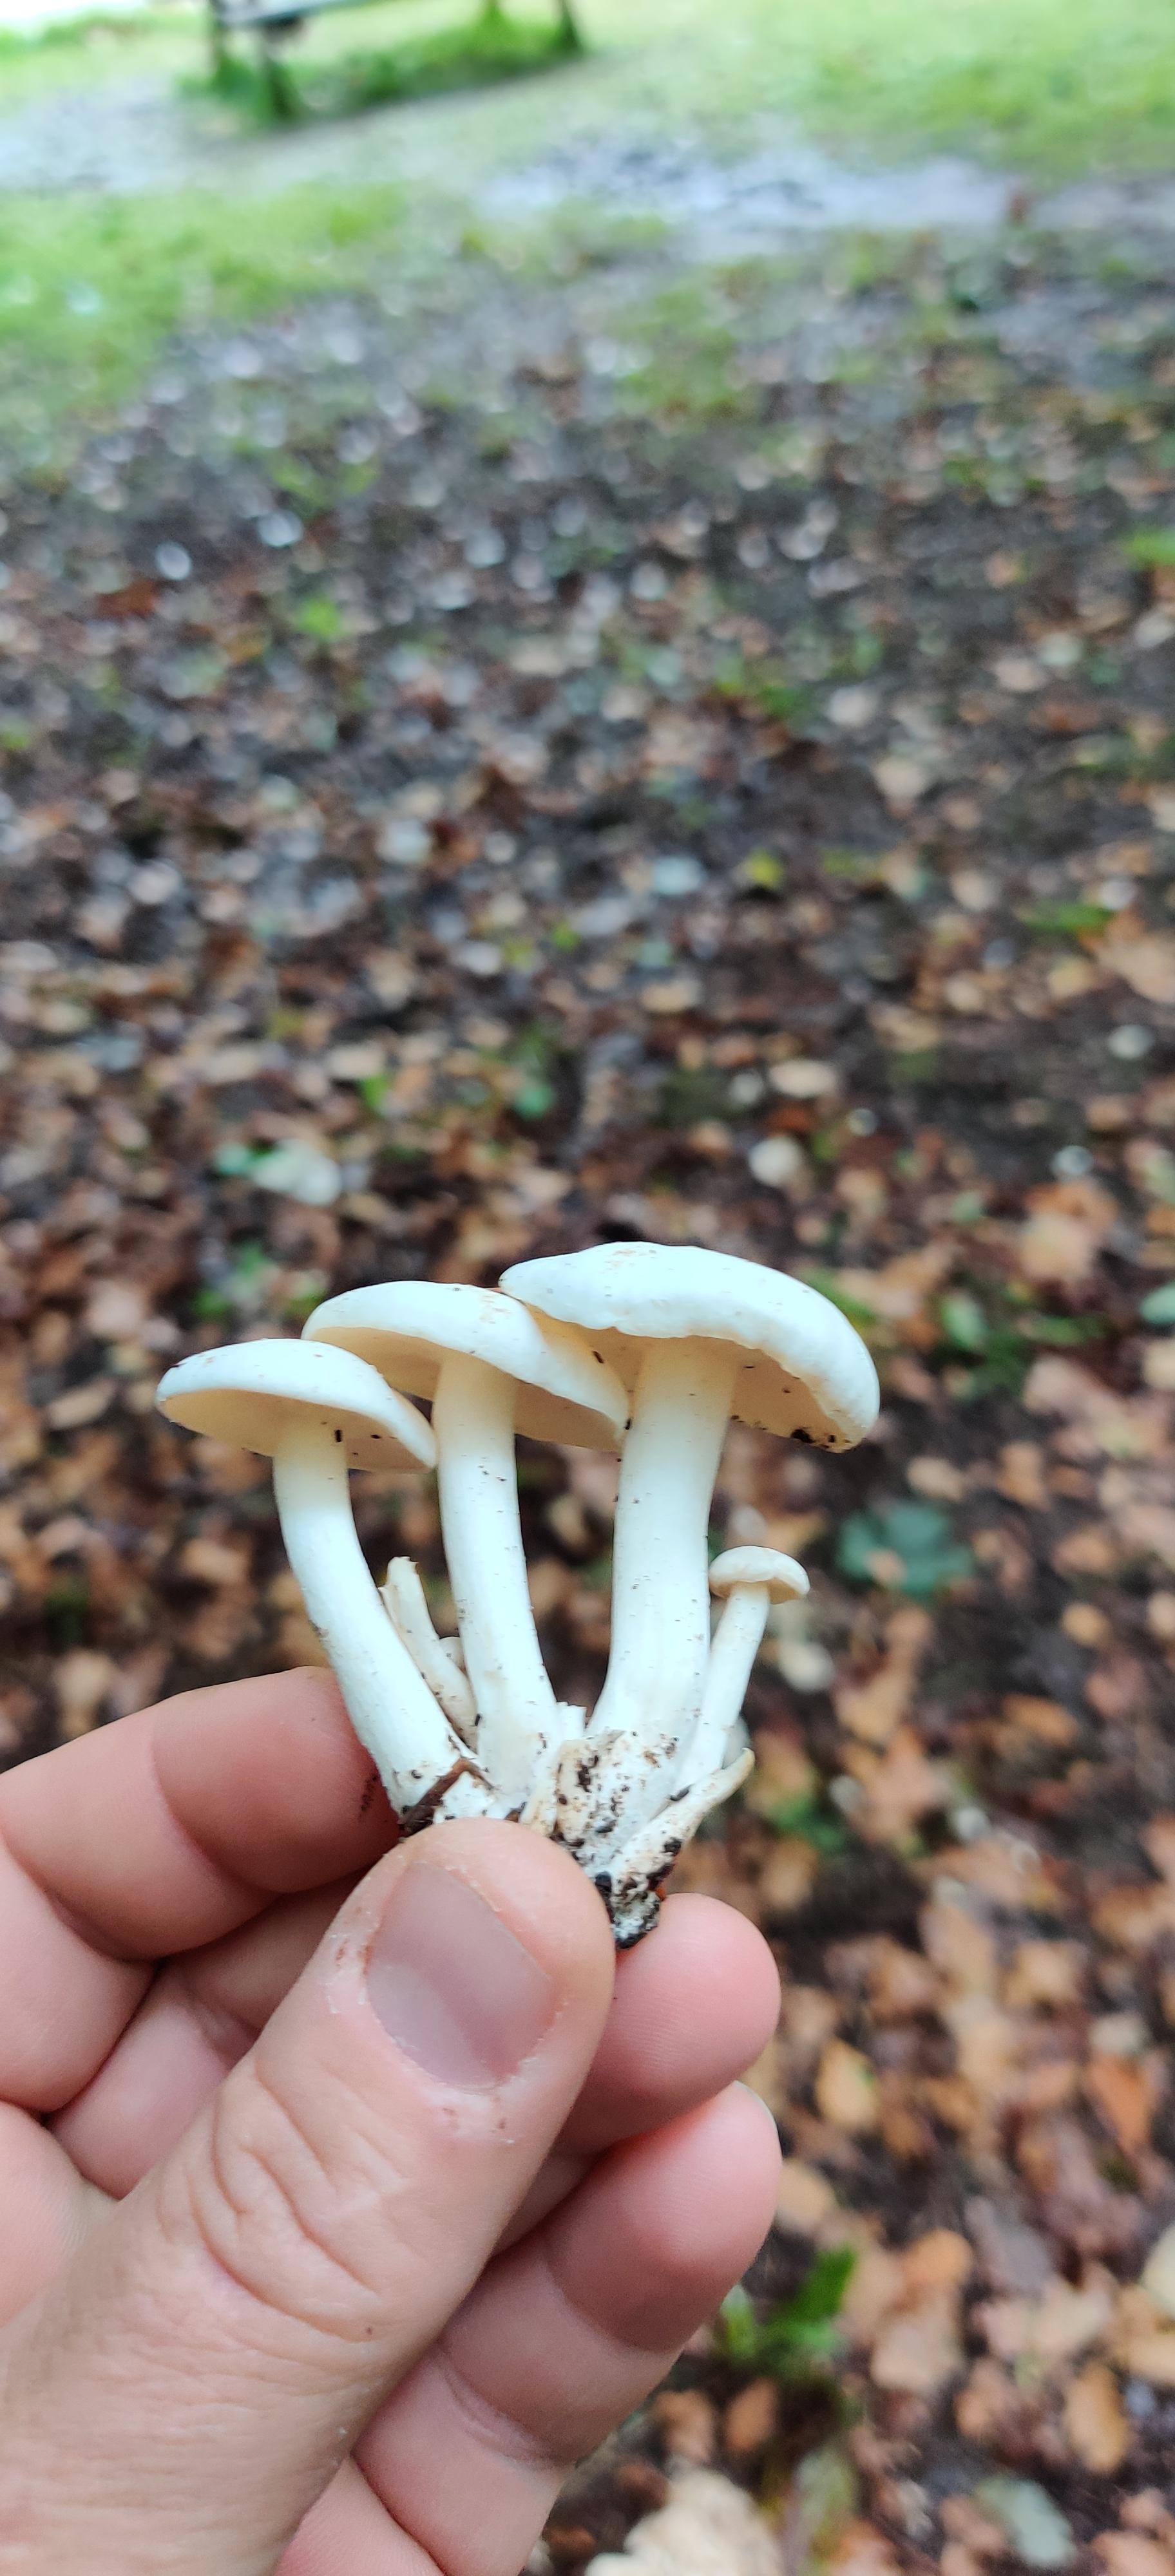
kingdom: Fungi
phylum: Basidiomycota
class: Agaricomycetes
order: Agaricales
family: Tricholomataceae
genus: Leucocybe
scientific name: Leucocybe connata
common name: knippe-tragthat
